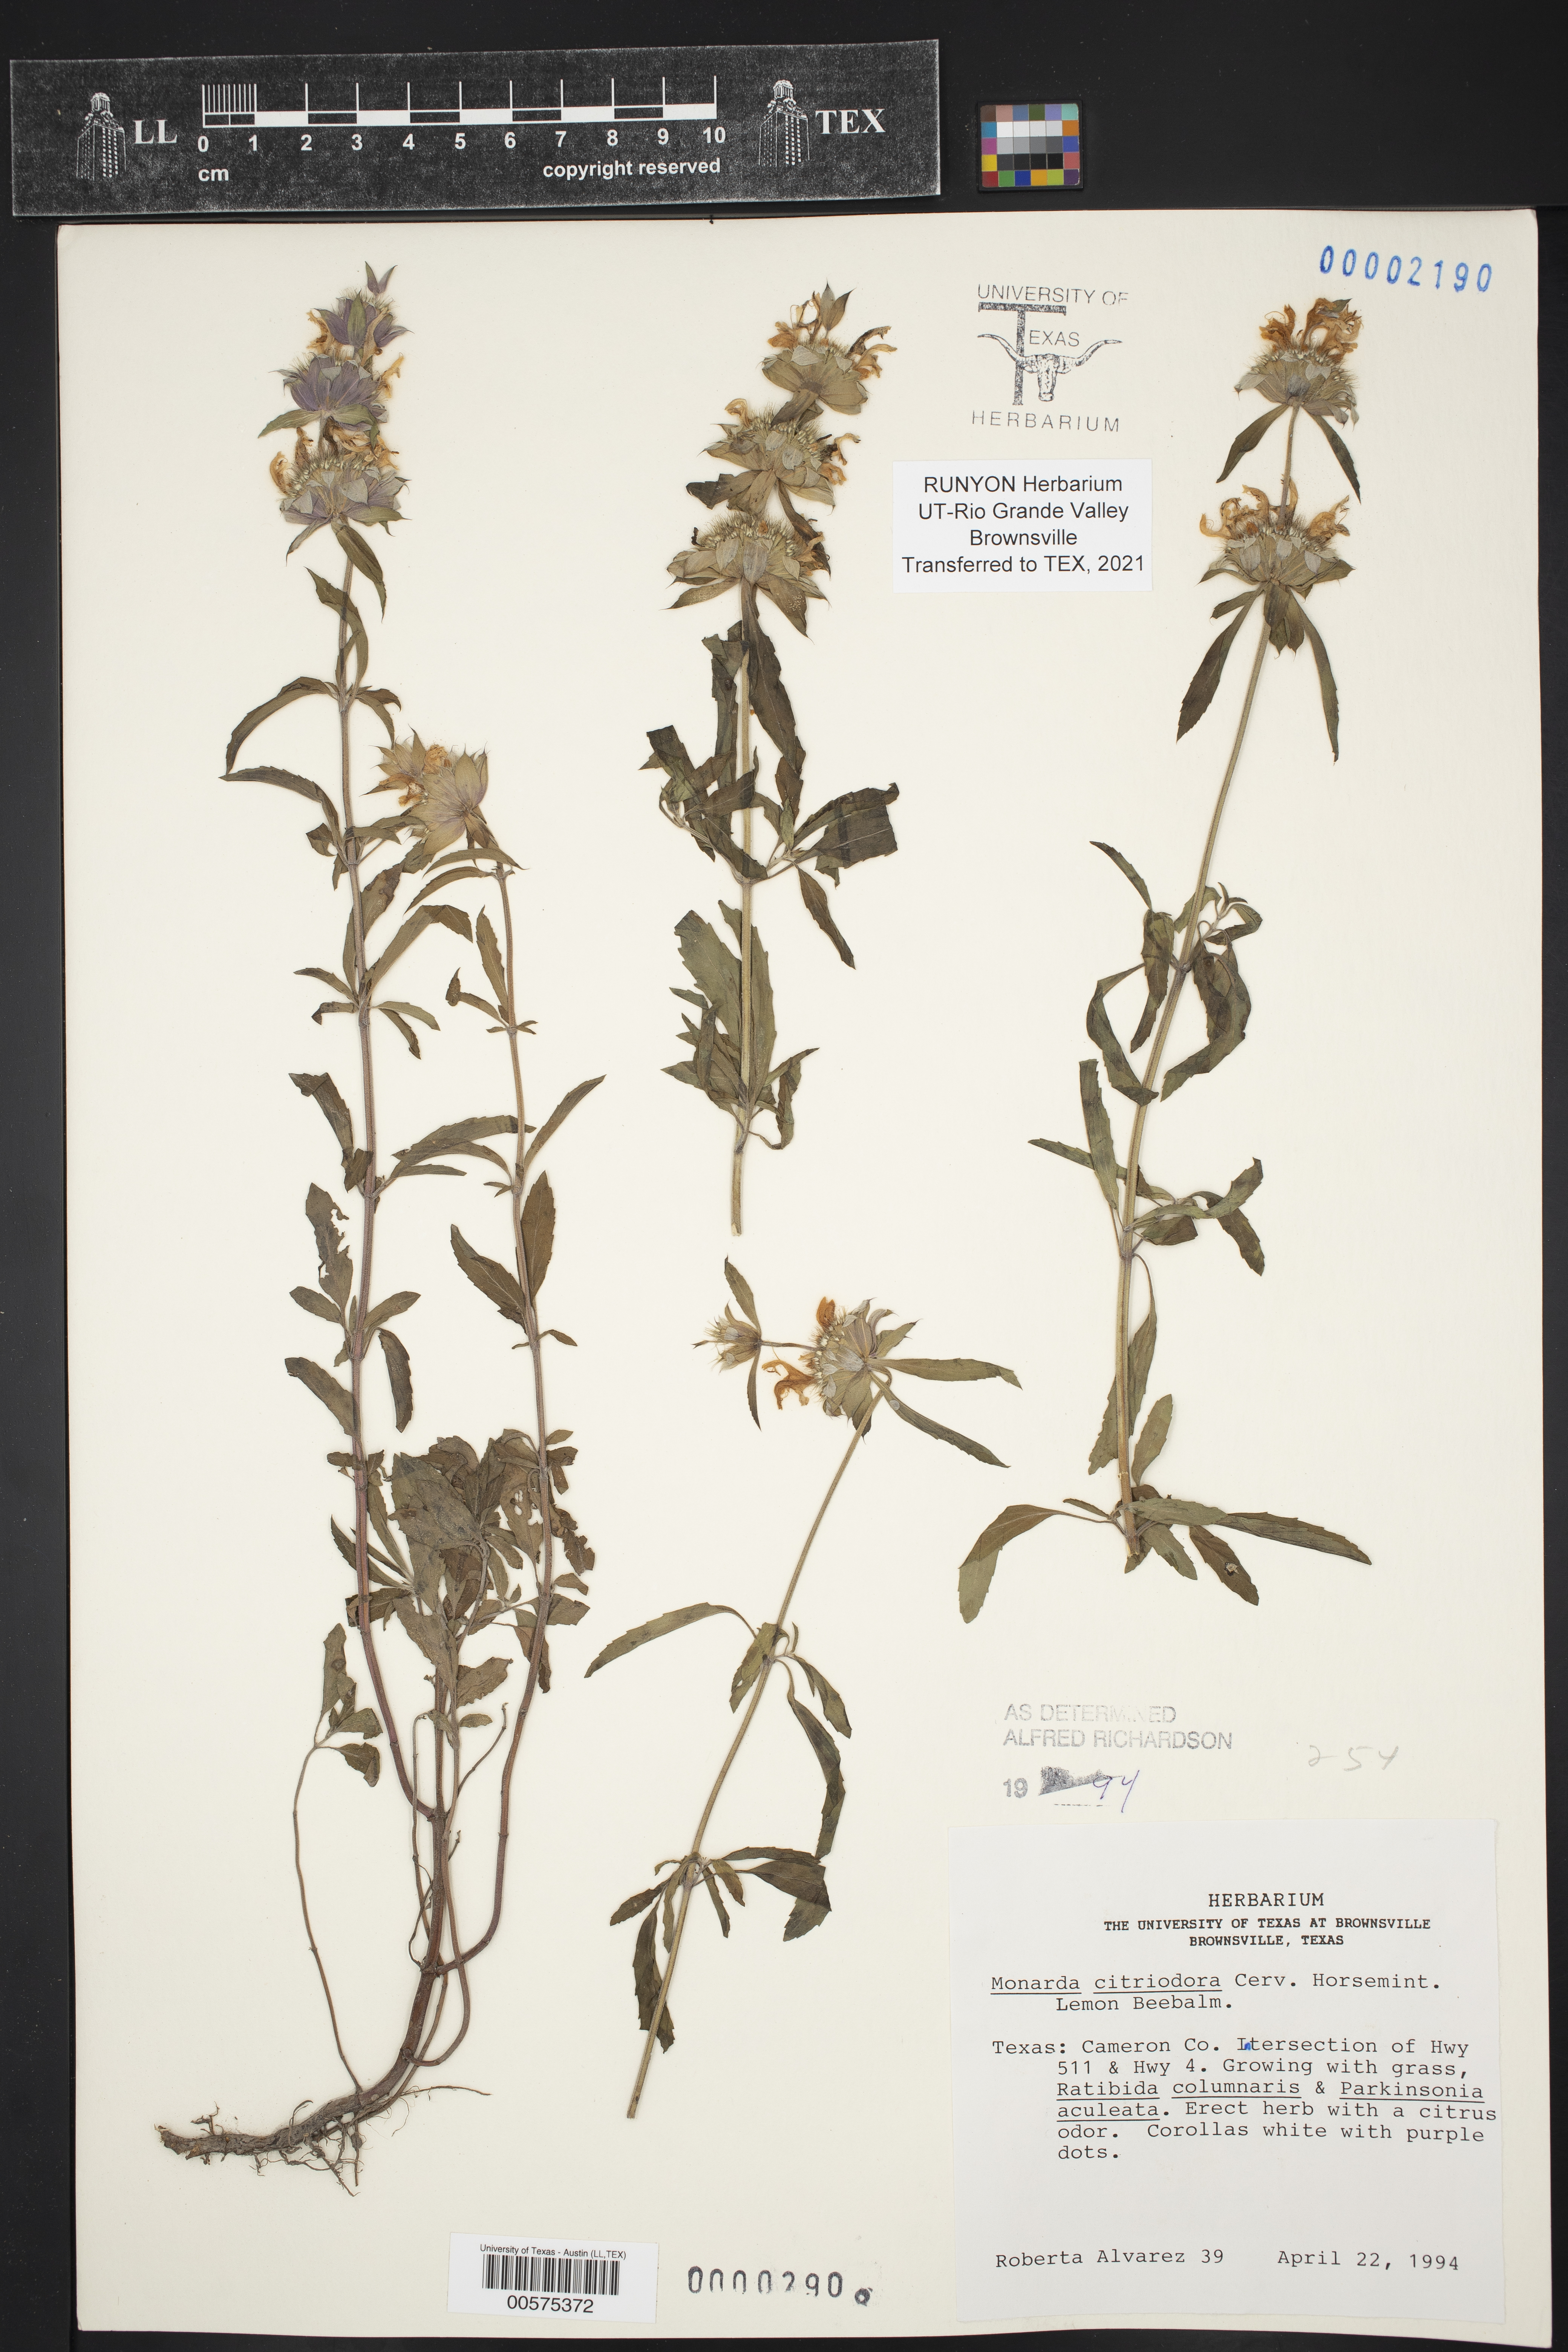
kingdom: Plantae
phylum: Tracheophyta
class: Magnoliopsida
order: Lamiales
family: Lamiaceae
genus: Monarda
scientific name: Monarda citriodora
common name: Lemon beebalm
